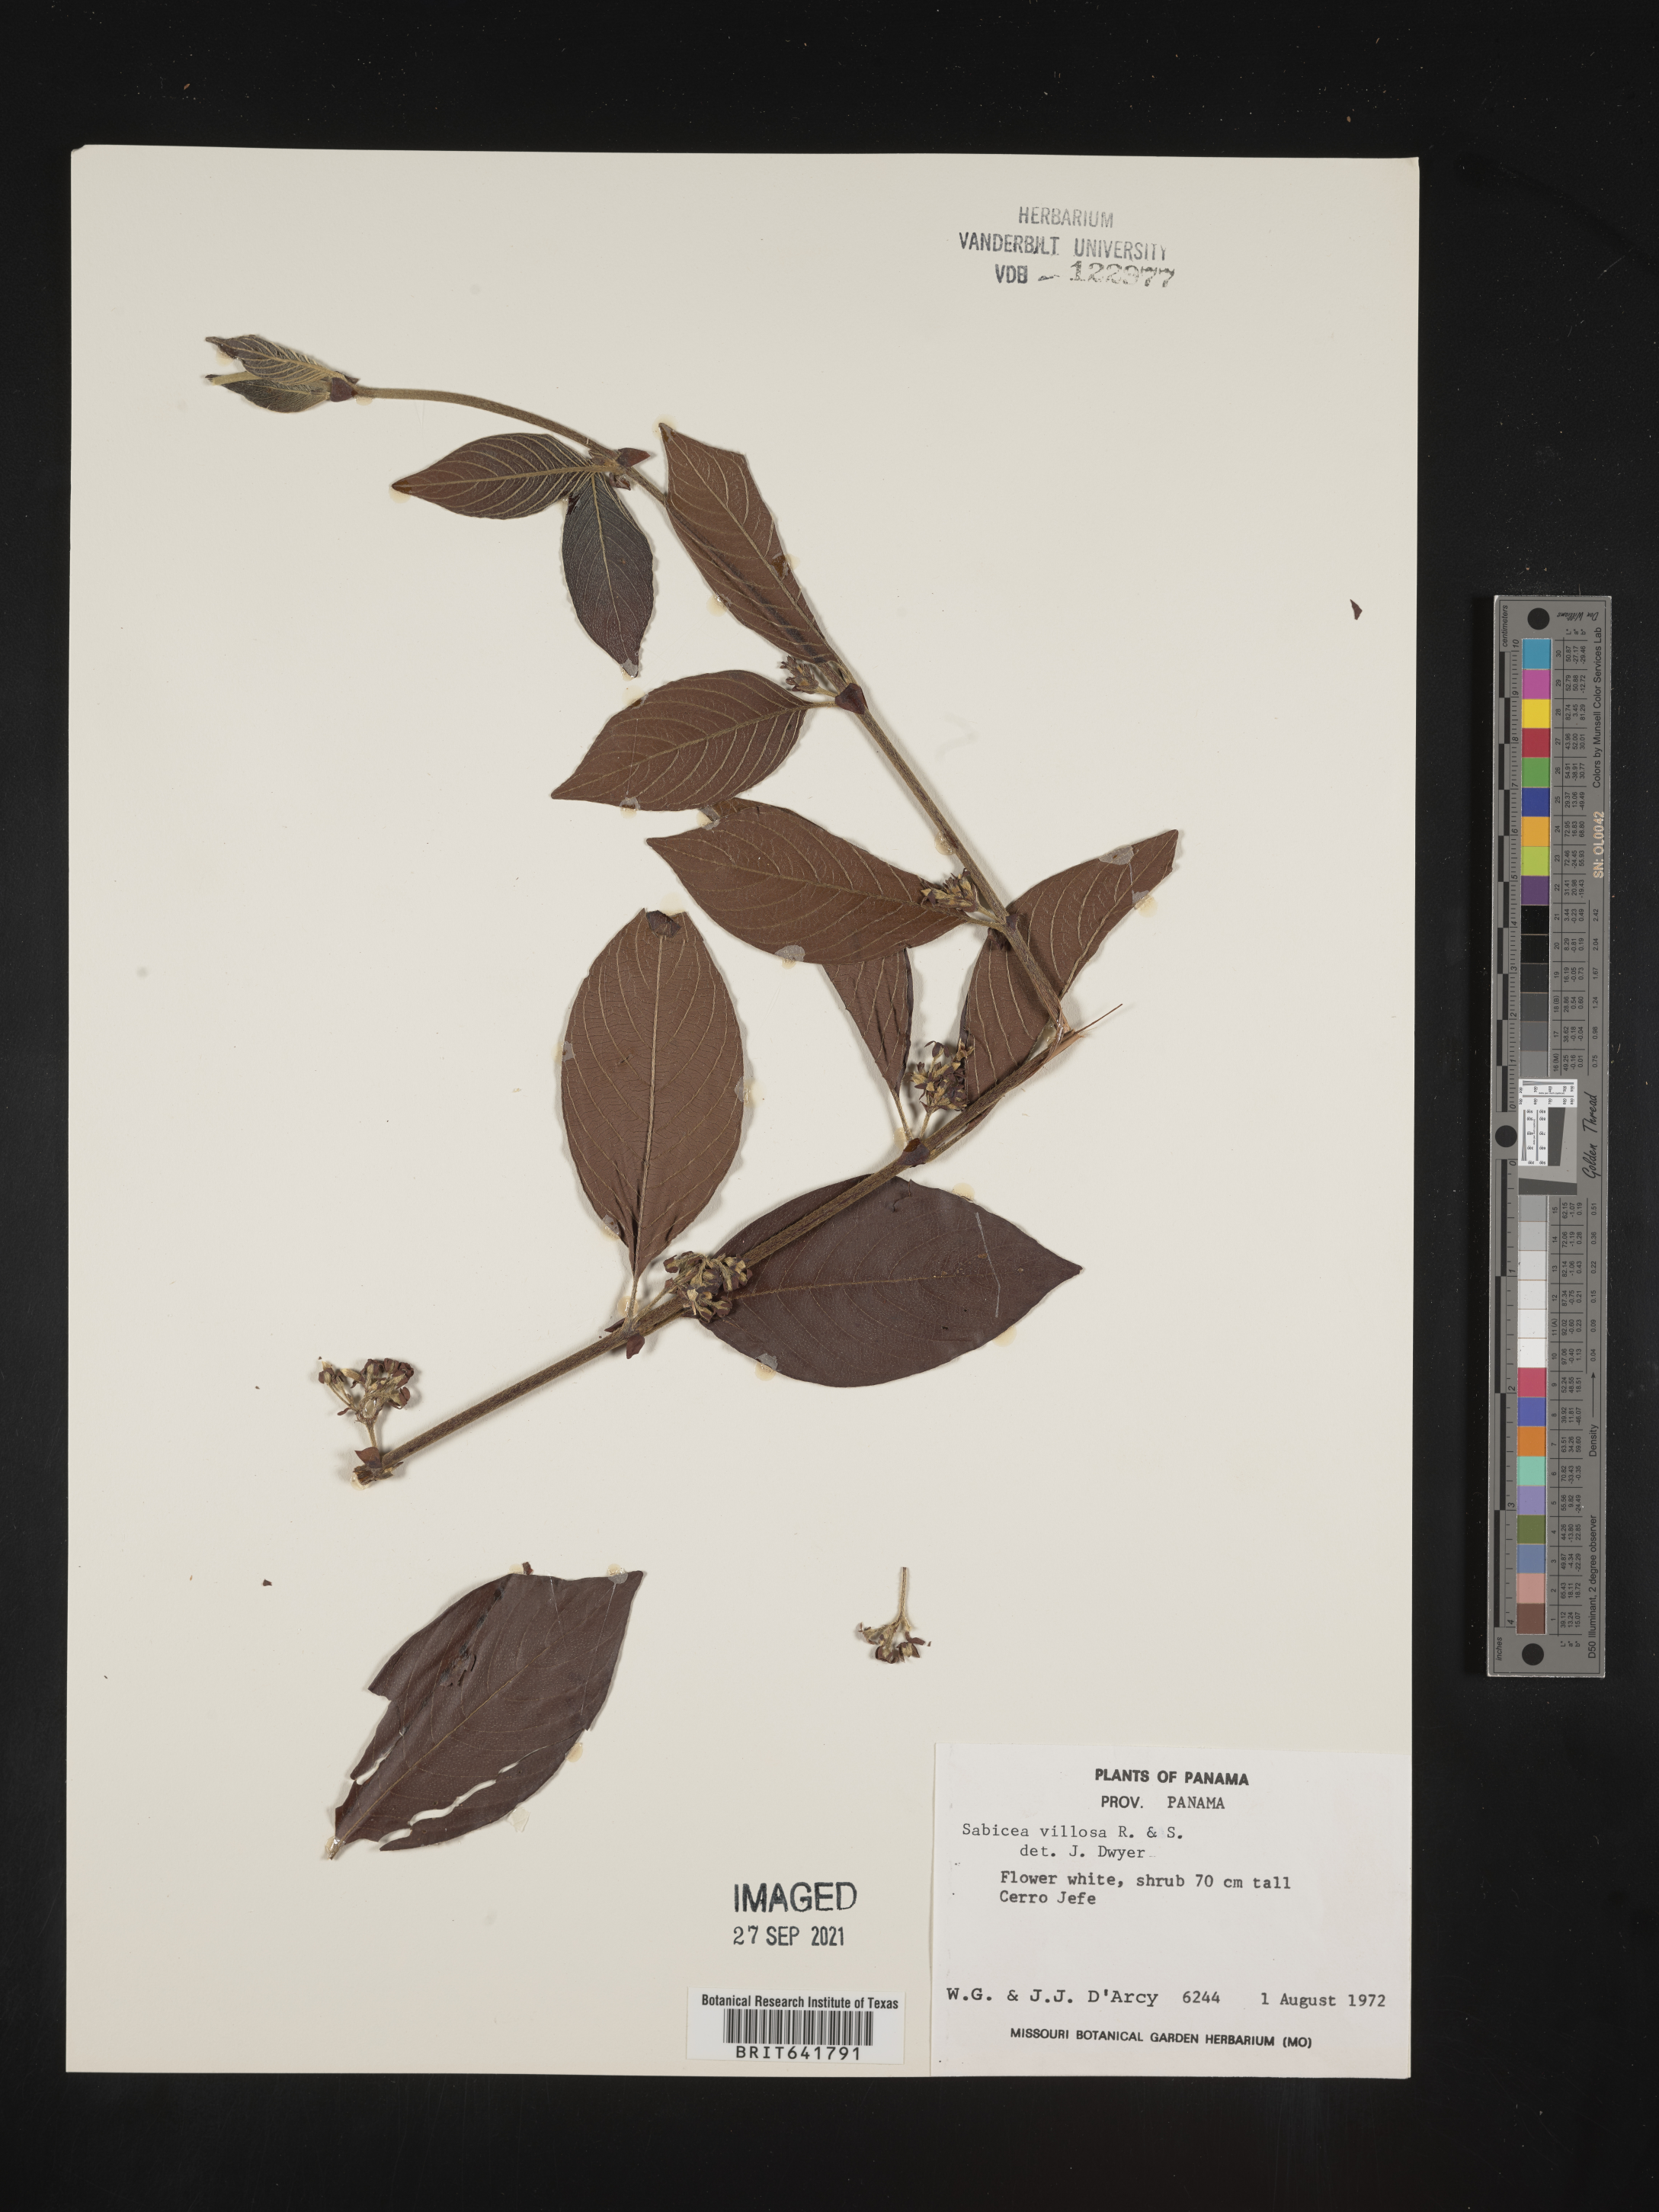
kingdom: Plantae
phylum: Tracheophyta
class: Magnoliopsida
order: Gentianales
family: Rubiaceae
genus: Sabicea
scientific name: Sabicea
